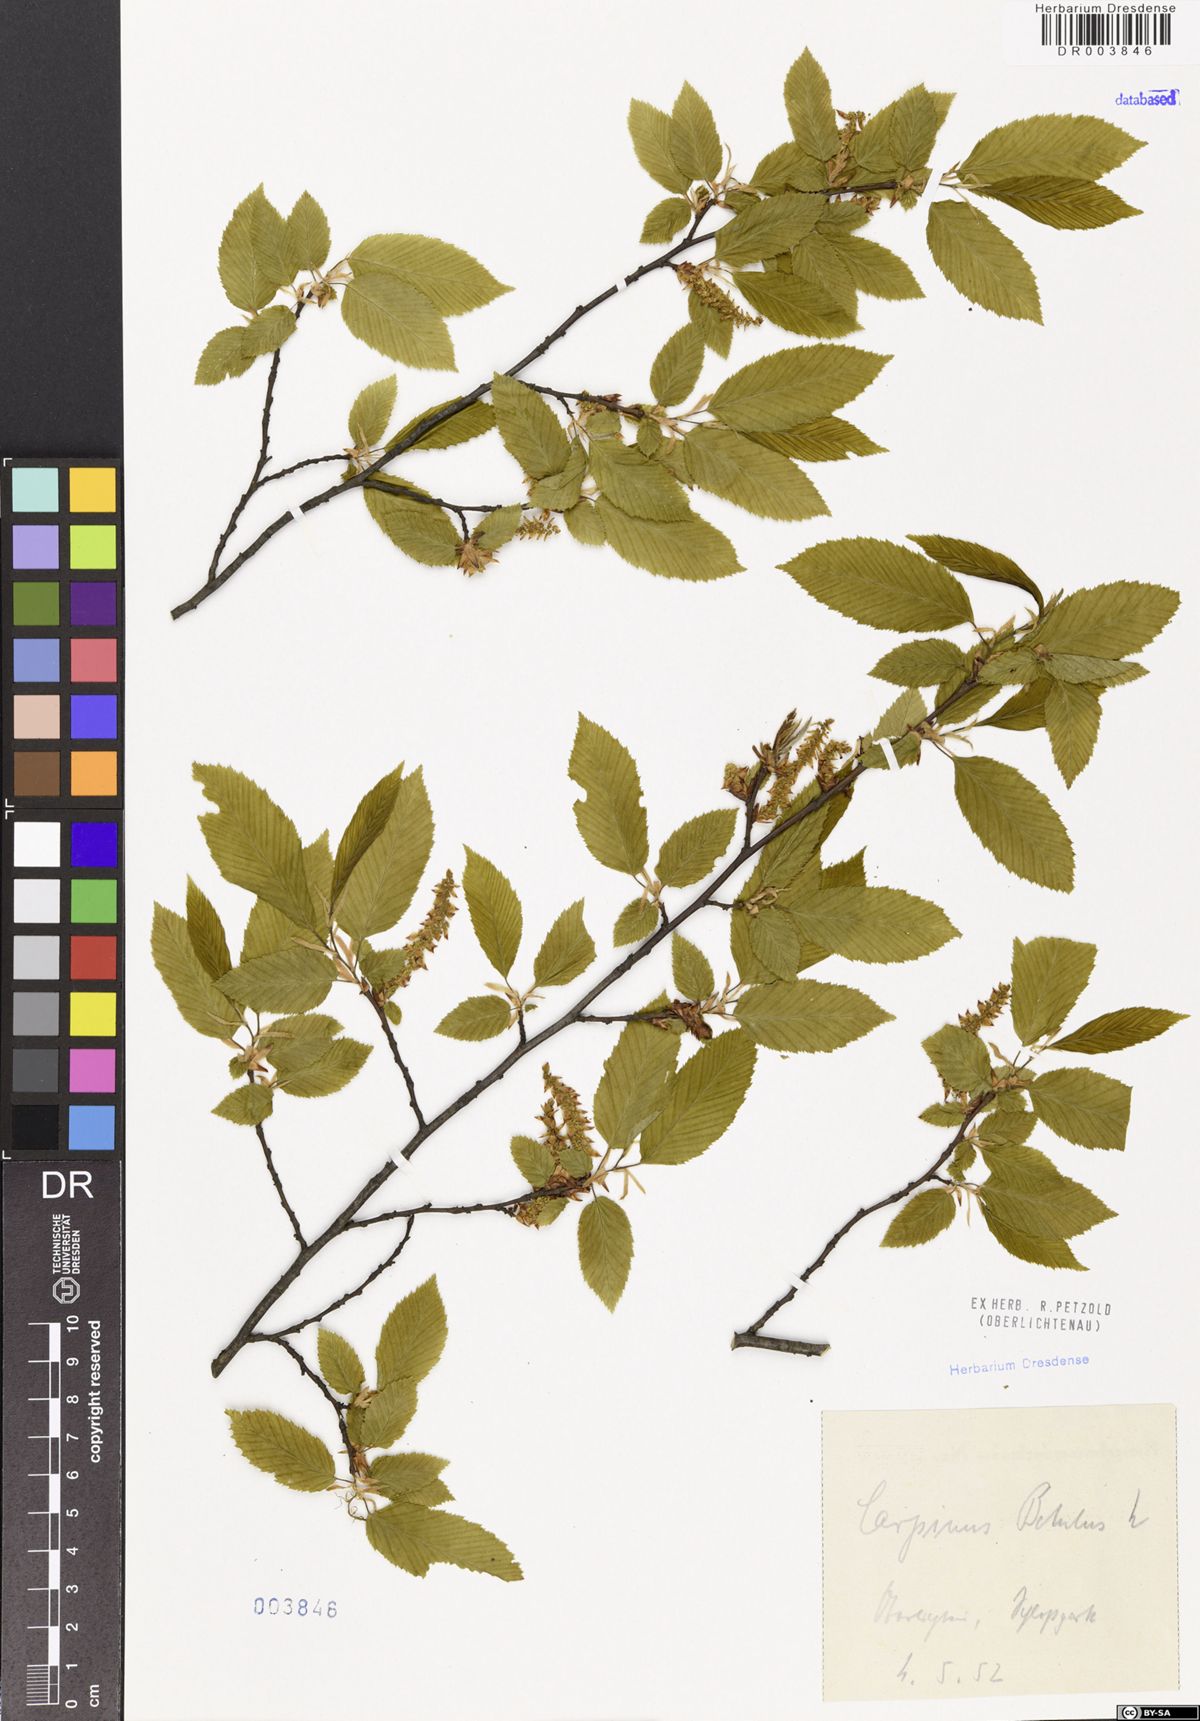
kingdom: Plantae
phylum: Tracheophyta
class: Magnoliopsida
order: Fagales
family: Betulaceae
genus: Carpinus
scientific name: Carpinus betulus
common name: Hornbeam
